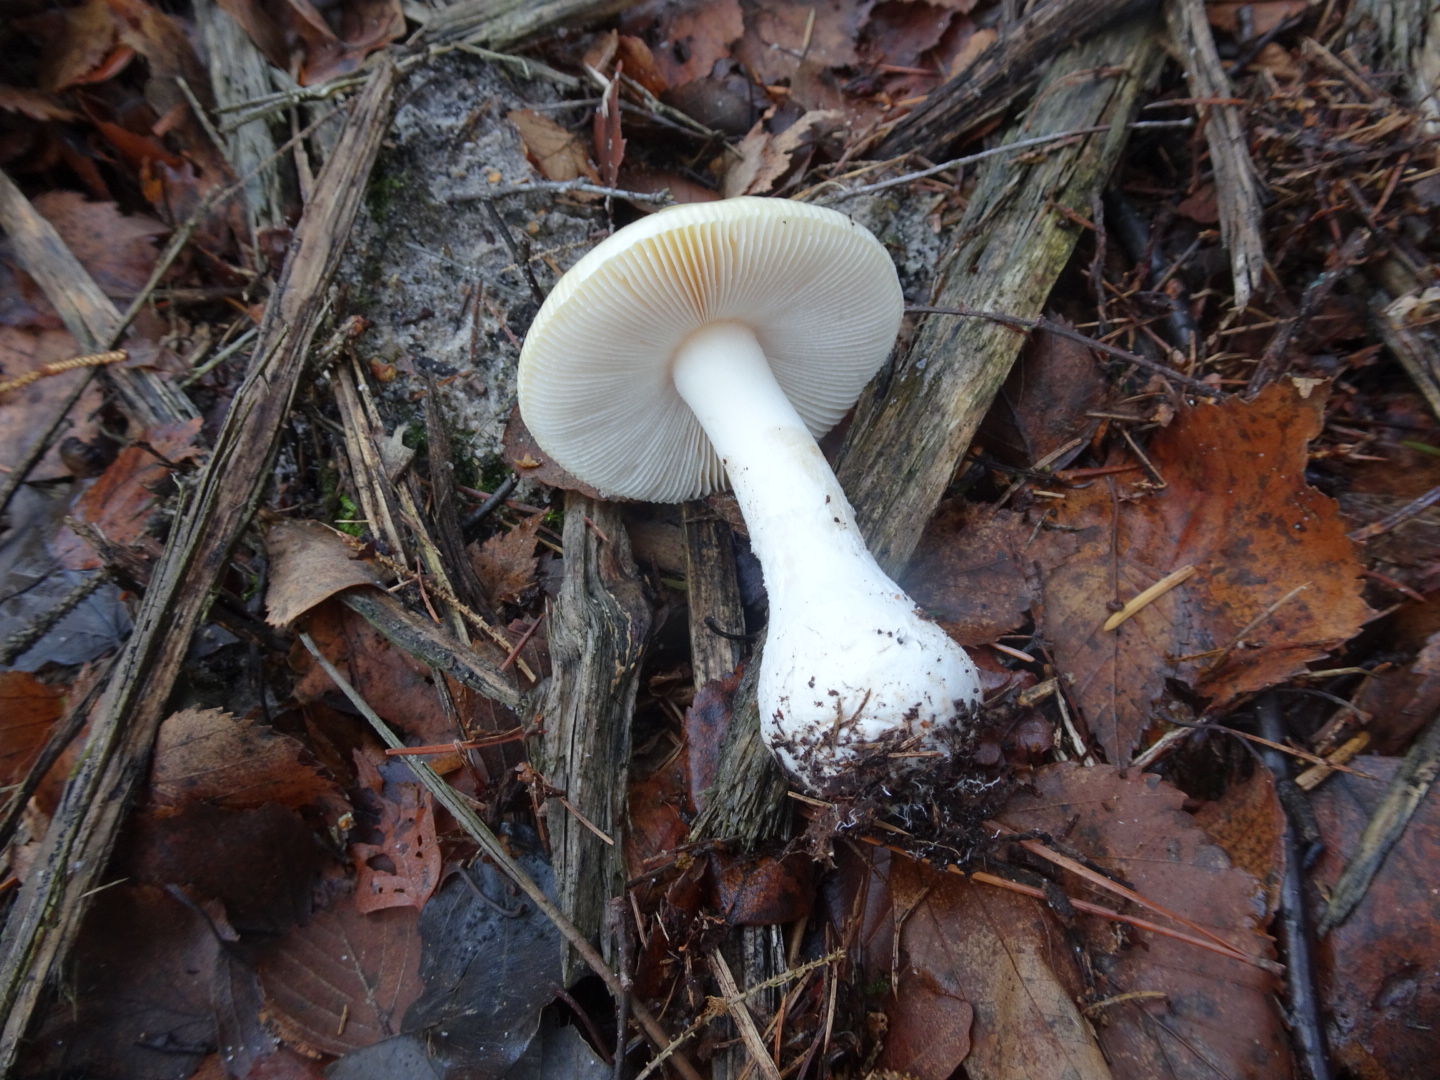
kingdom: Fungi
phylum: Basidiomycota
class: Agaricomycetes
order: Agaricales
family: Amanitaceae
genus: Amanita
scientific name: Amanita gemmata
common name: okkergul fluesvamp
